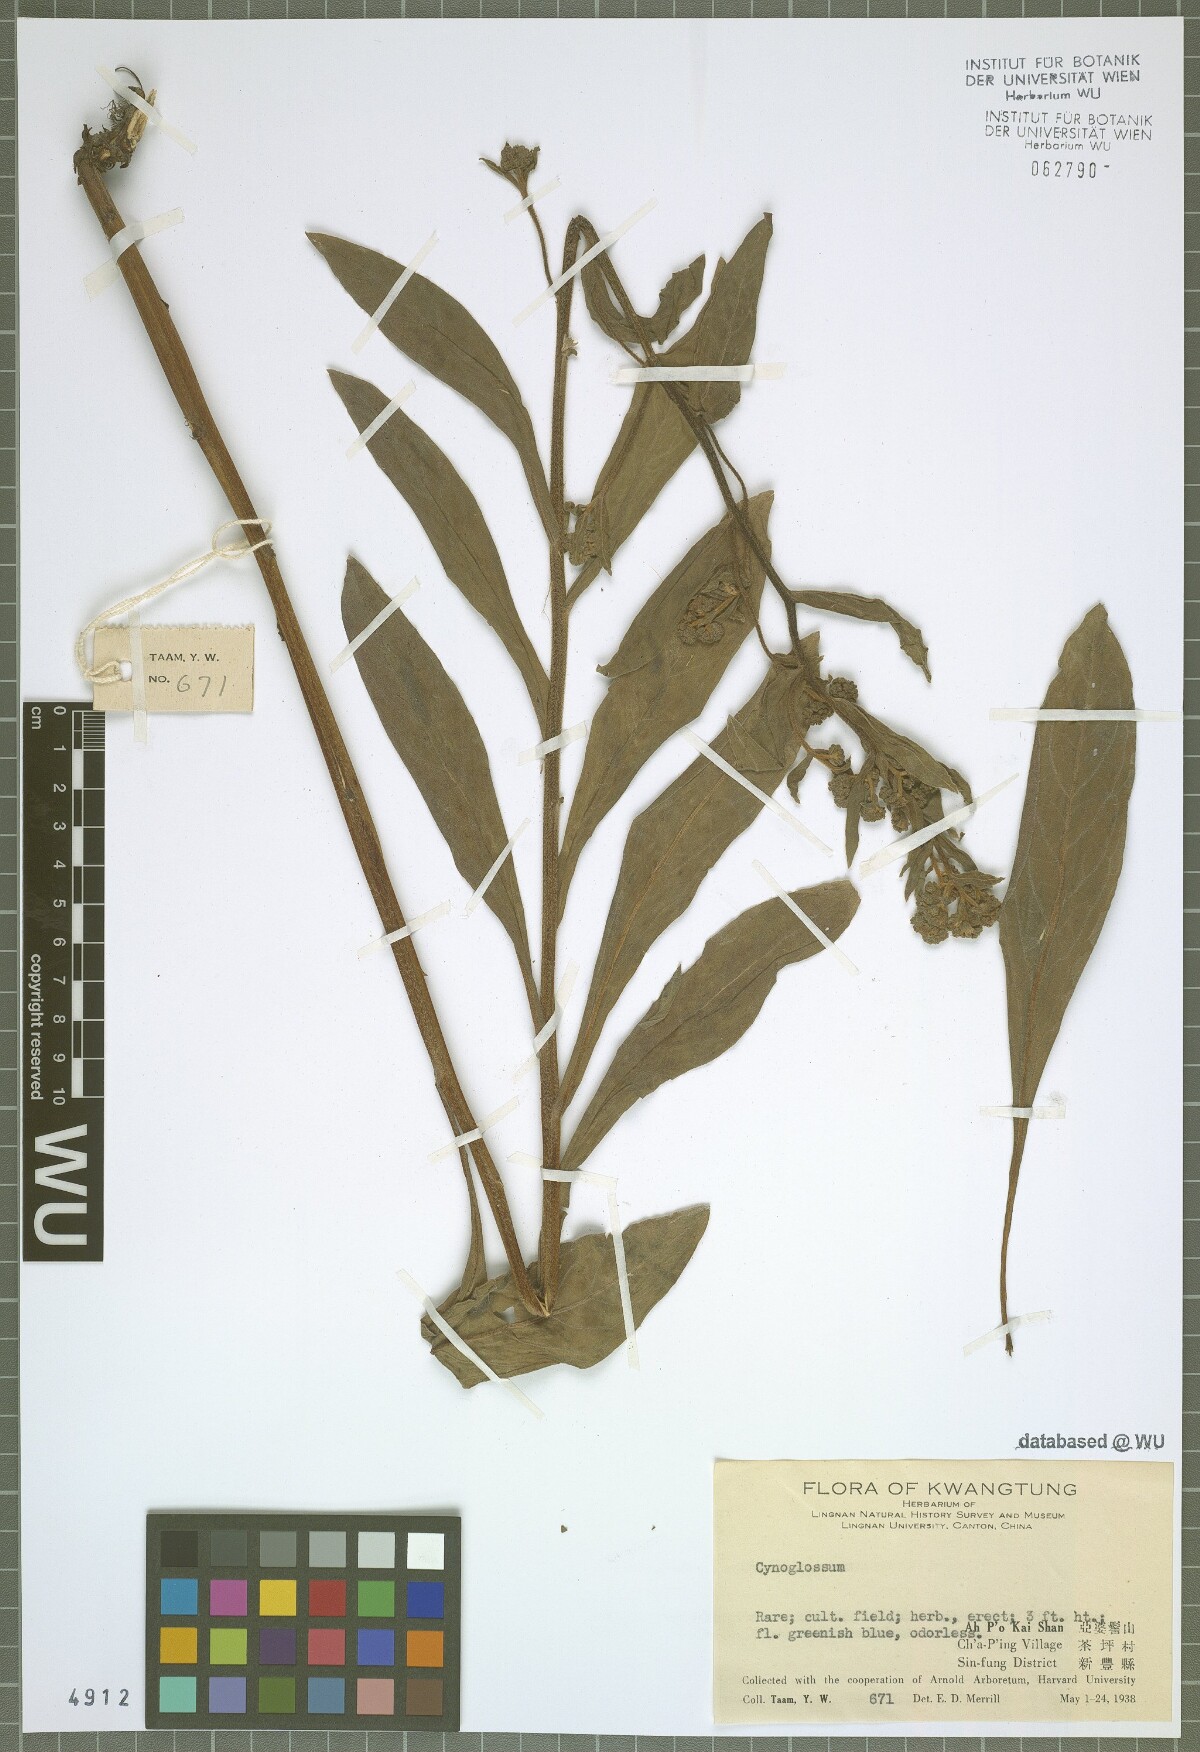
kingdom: Plantae
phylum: Tracheophyta
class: Magnoliopsida
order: Boraginales
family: Boraginaceae
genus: Cynoglossum
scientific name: Cynoglossum
